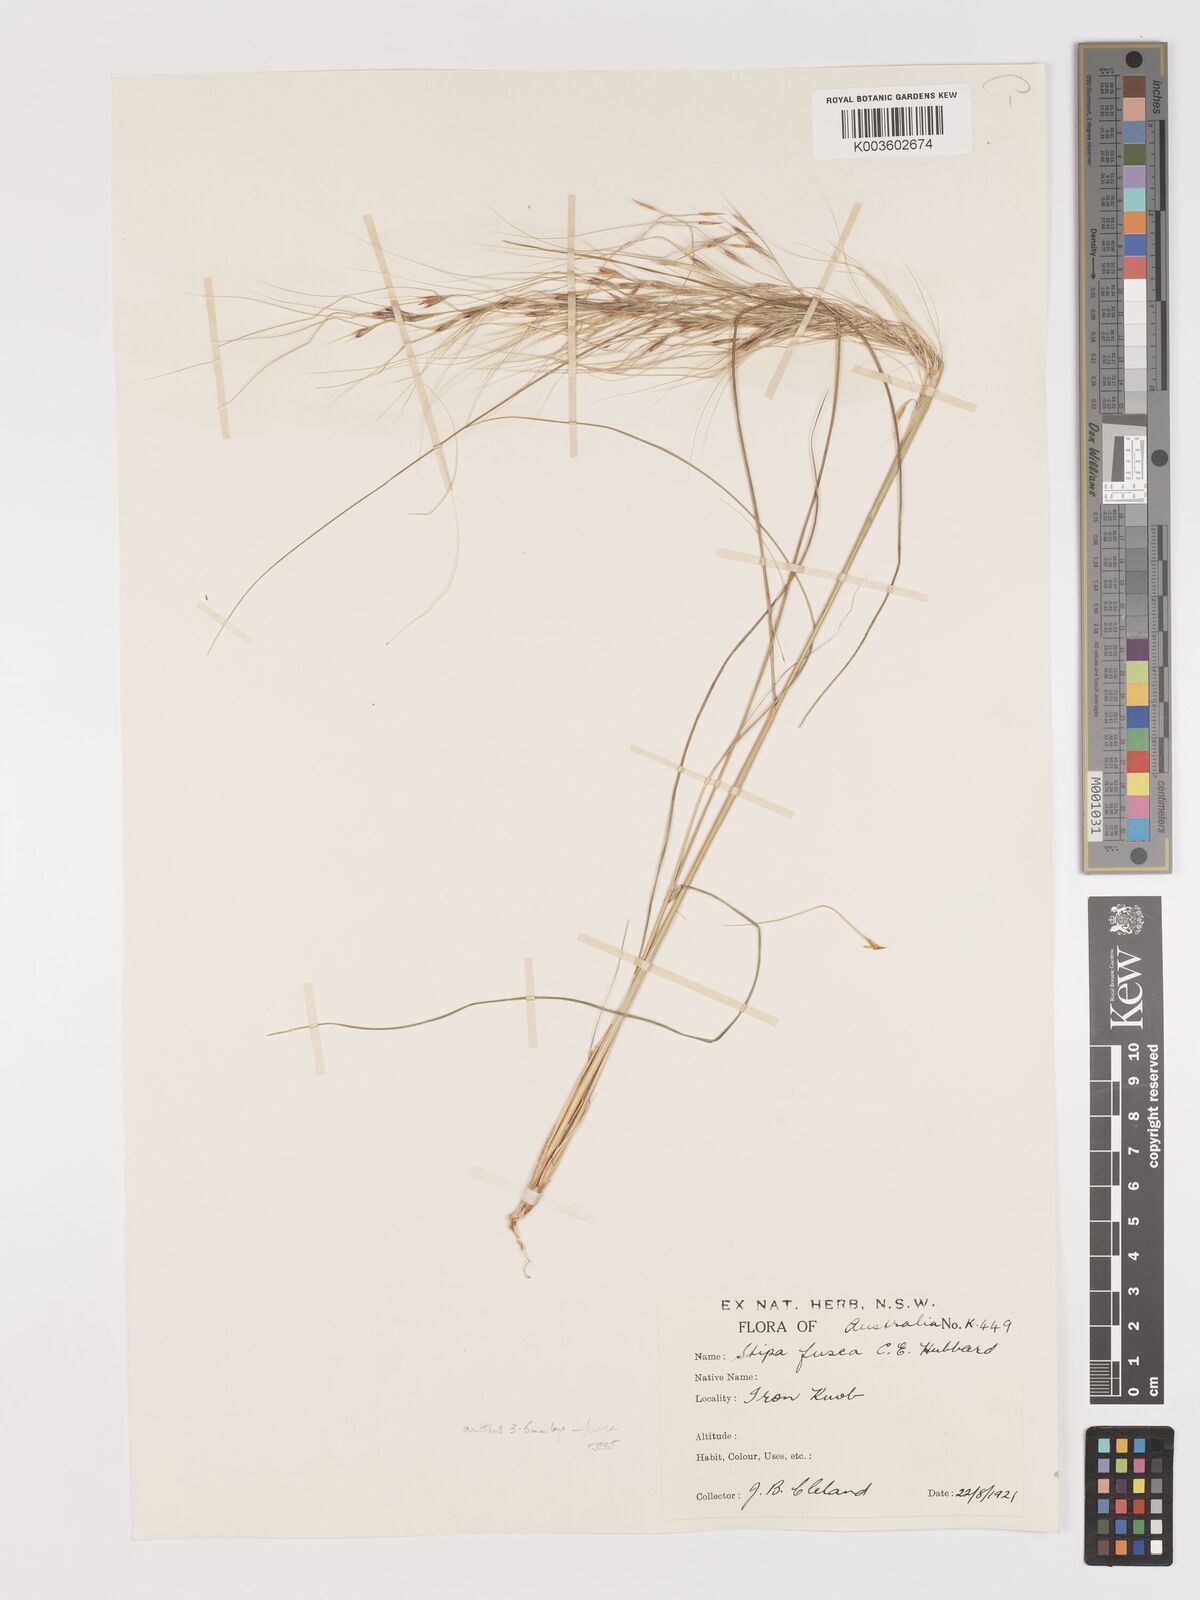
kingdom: Plantae
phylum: Tracheophyta
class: Liliopsida
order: Poales
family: Poaceae
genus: Austrostipa
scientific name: Austrostipa eremophila
